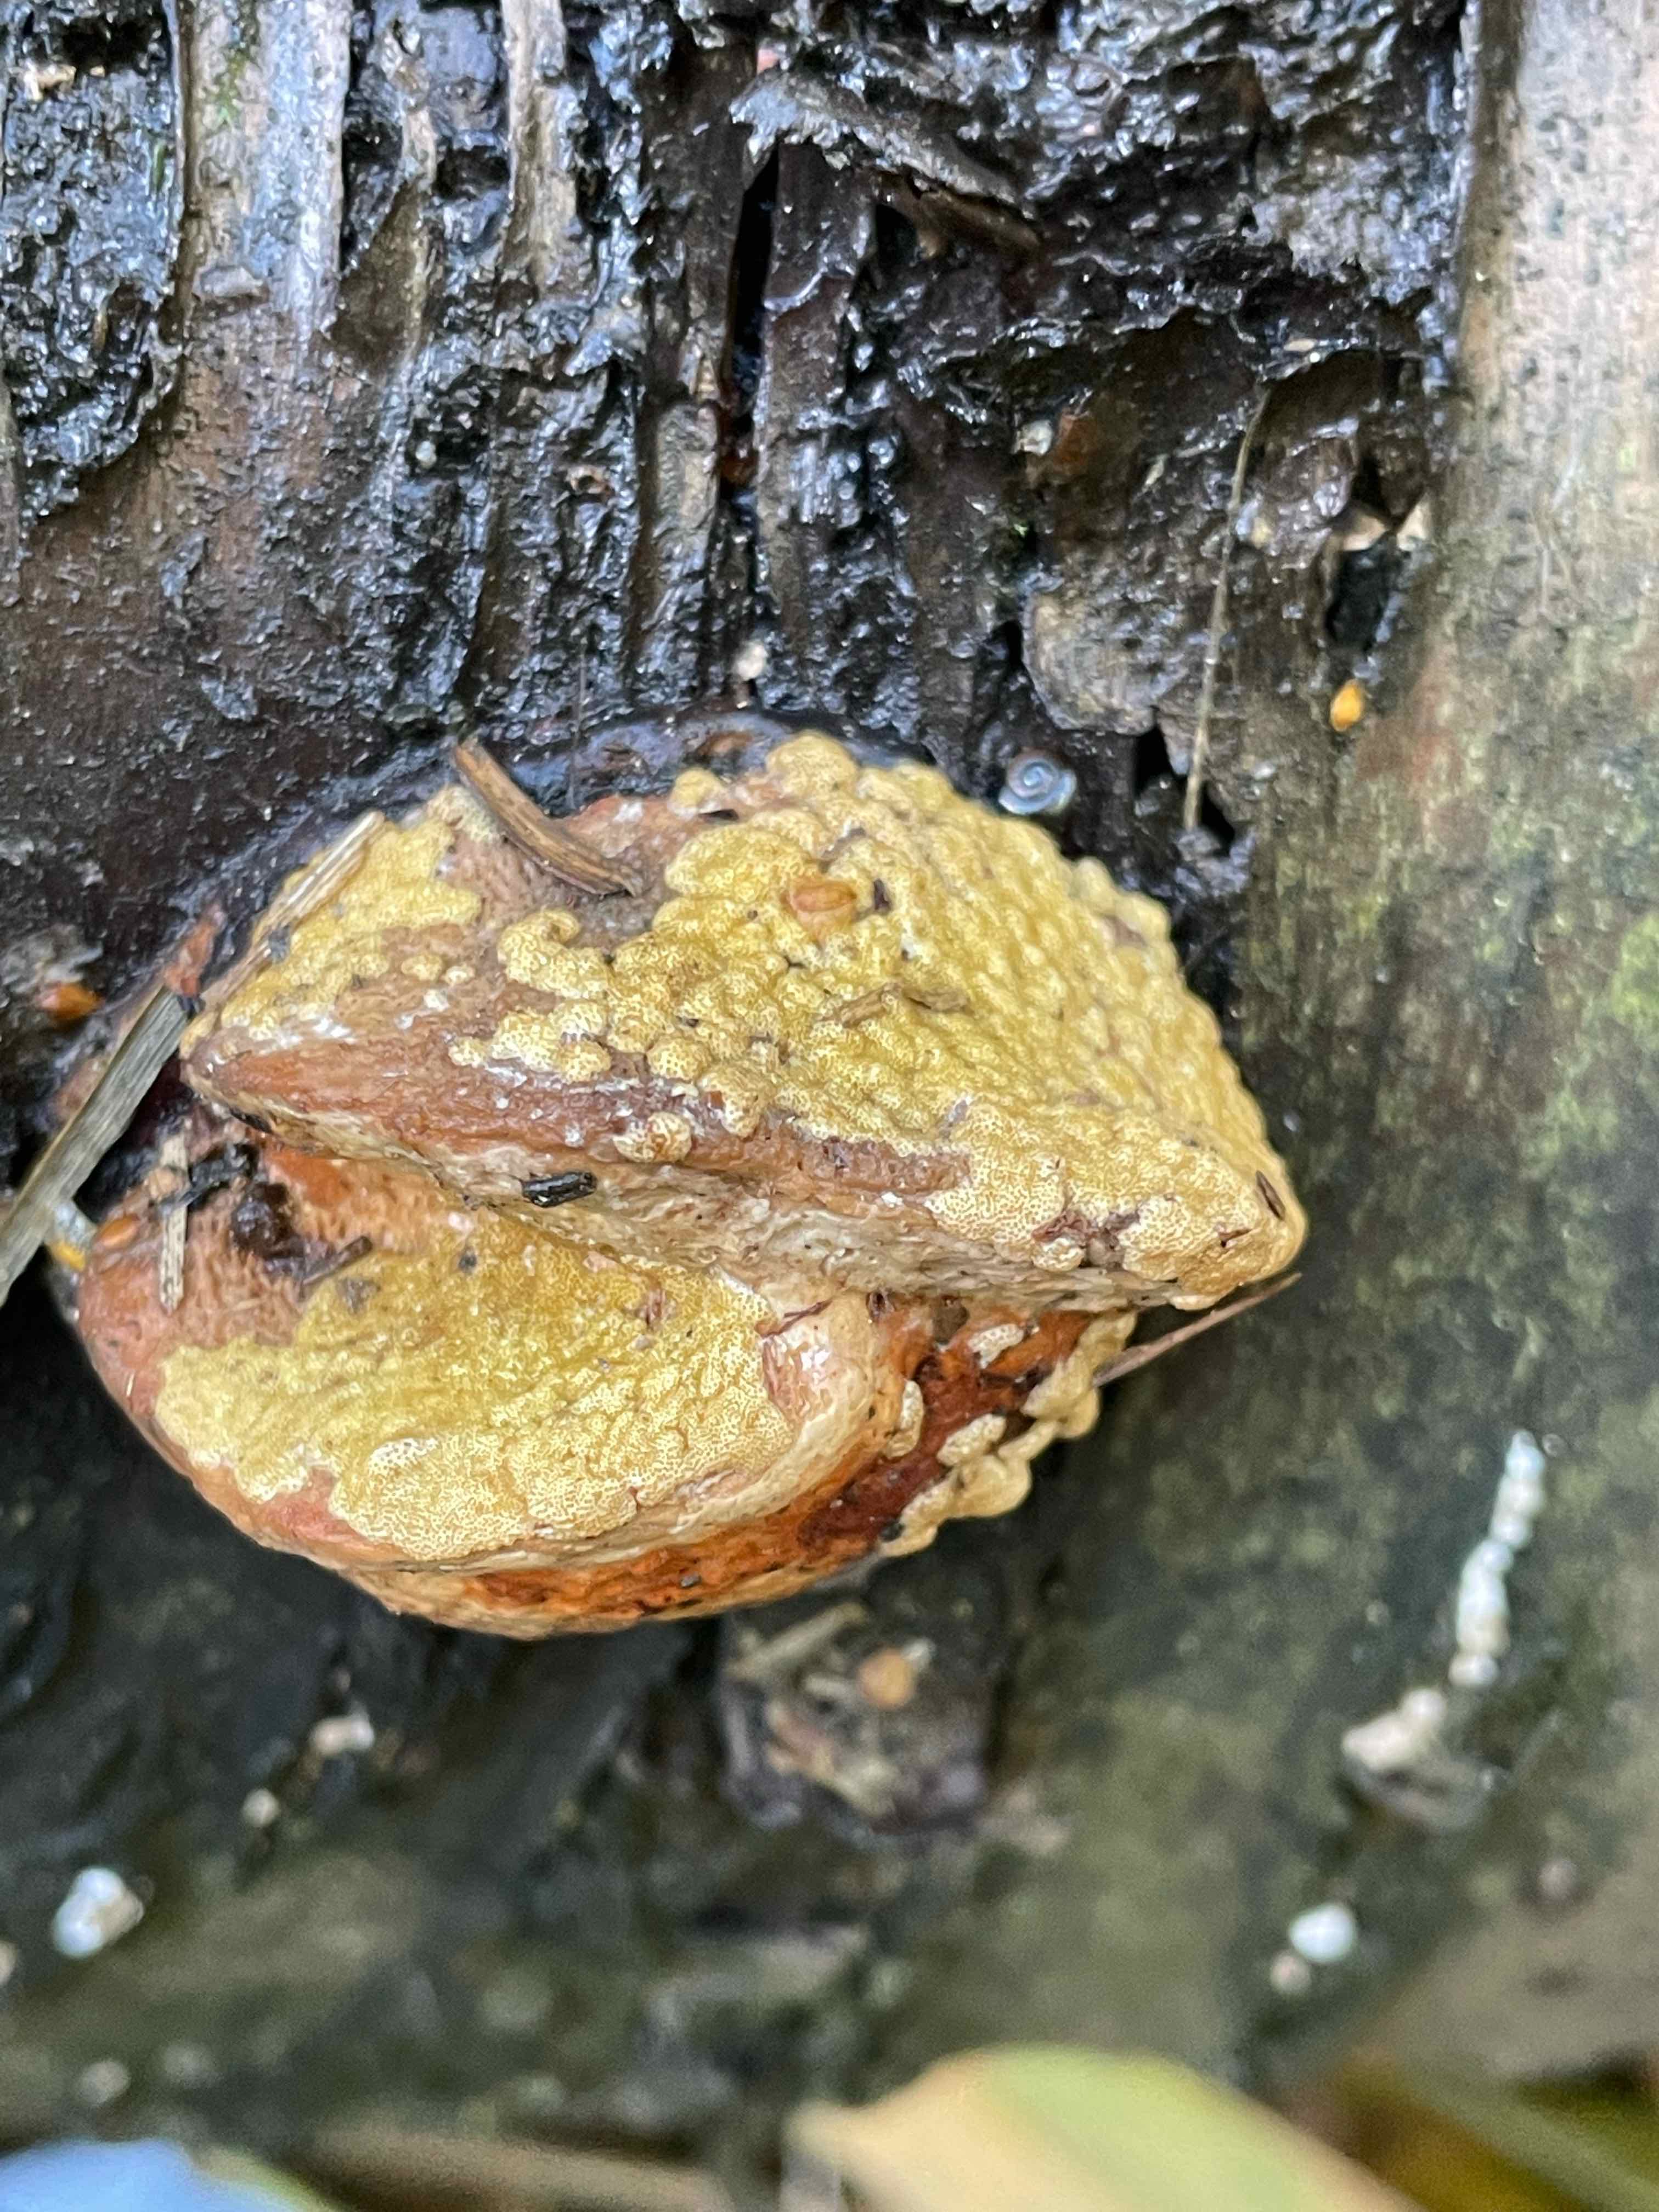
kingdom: Fungi
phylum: Ascomycota
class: Sordariomycetes
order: Hypocreales
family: Hypocreaceae
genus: Trichoderma
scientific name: Trichoderma pulvinatum
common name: snyltende kødkerne
